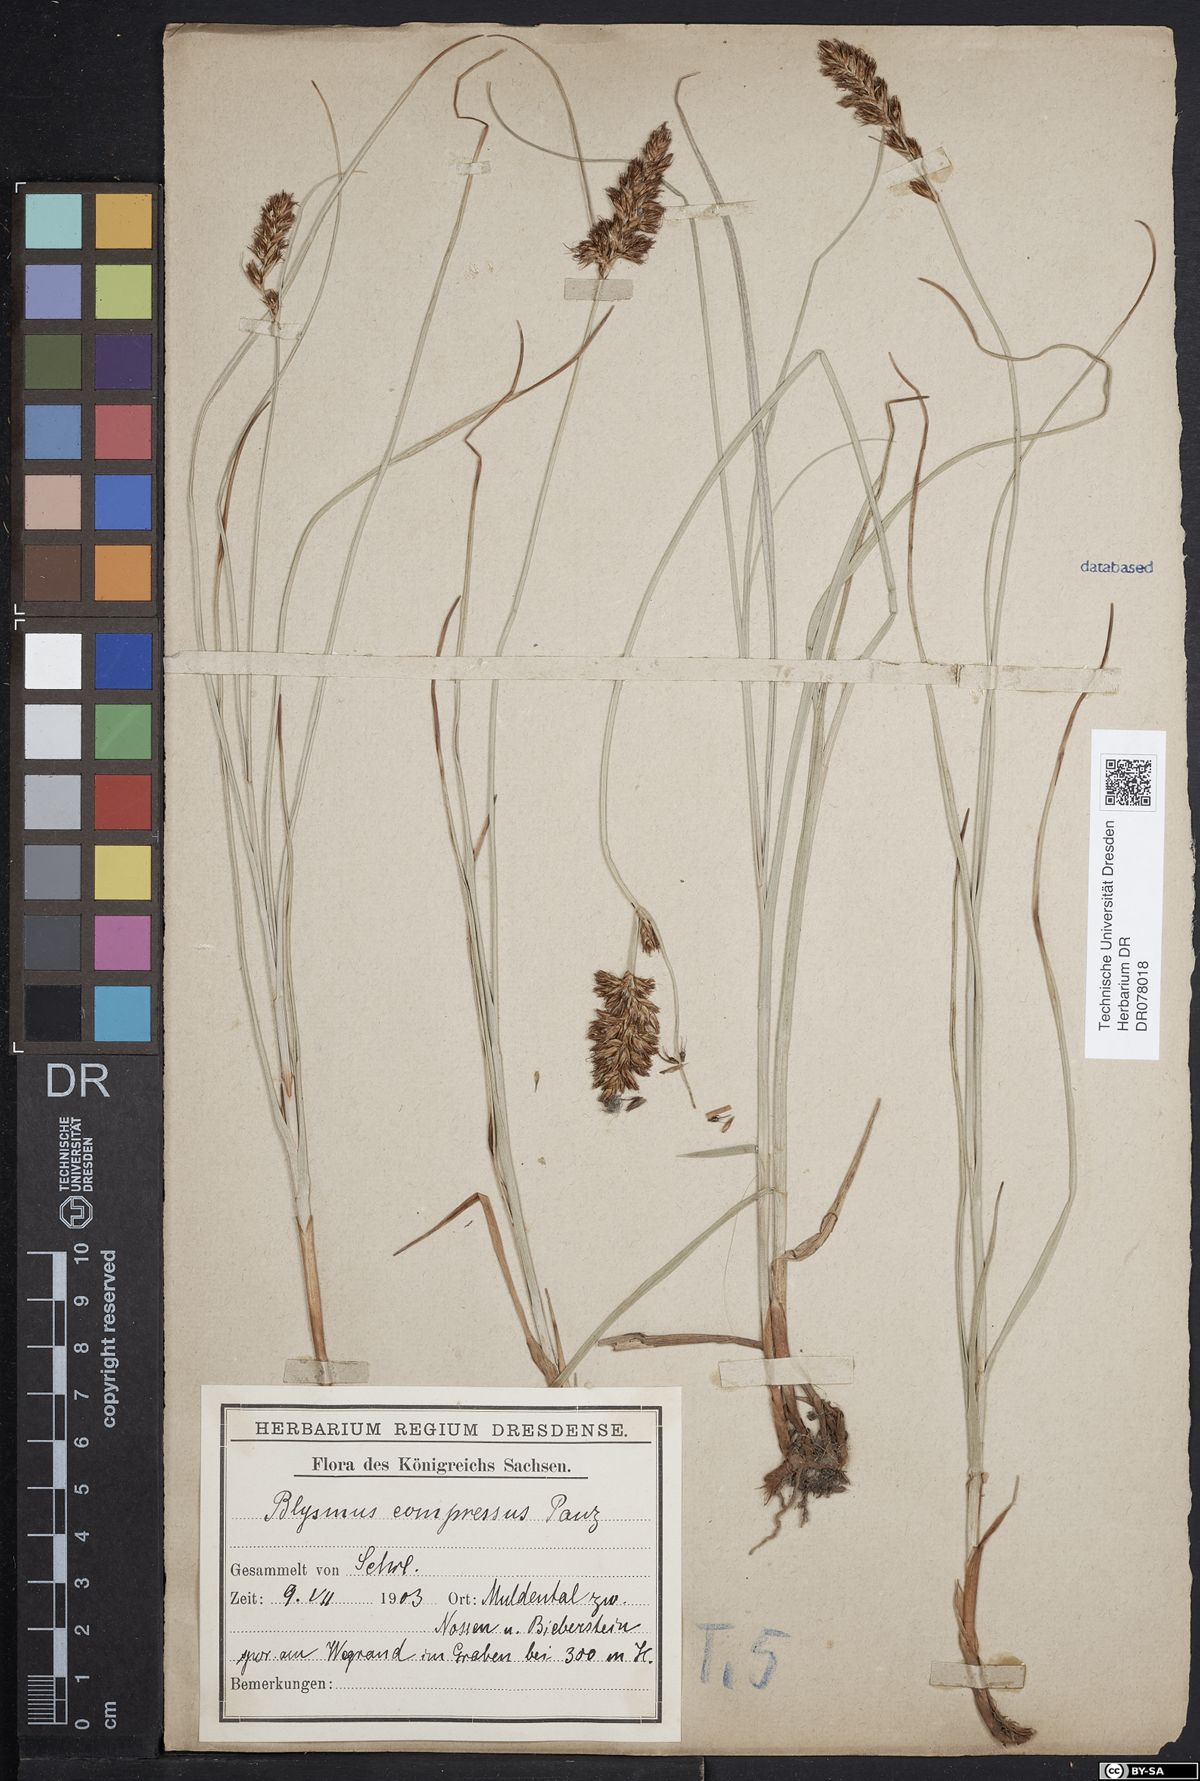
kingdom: Plantae
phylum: Tracheophyta
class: Liliopsida
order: Poales
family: Cyperaceae
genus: Blysmus
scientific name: Blysmus compressus
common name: Flat-sedge
